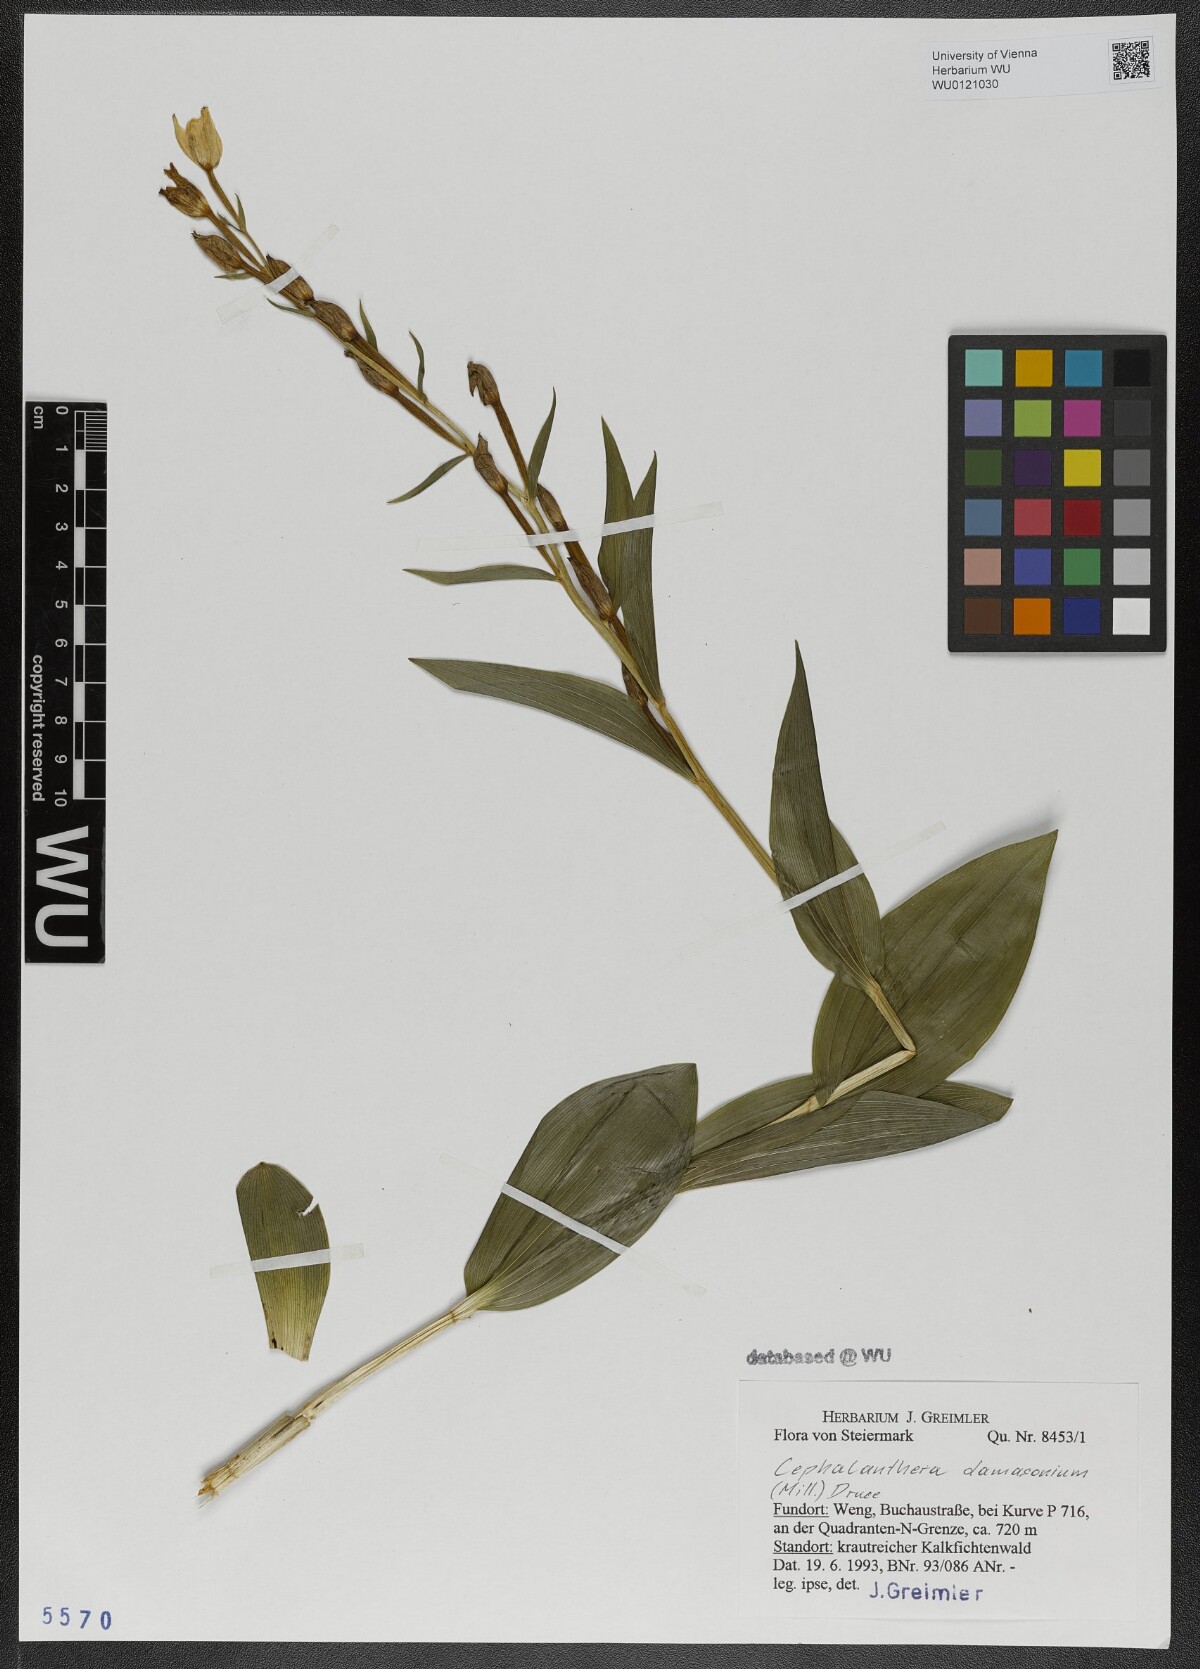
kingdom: Plantae
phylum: Tracheophyta
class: Liliopsida
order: Asparagales
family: Orchidaceae
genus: Cephalanthera
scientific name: Cephalanthera damasonium
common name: White helleborine
